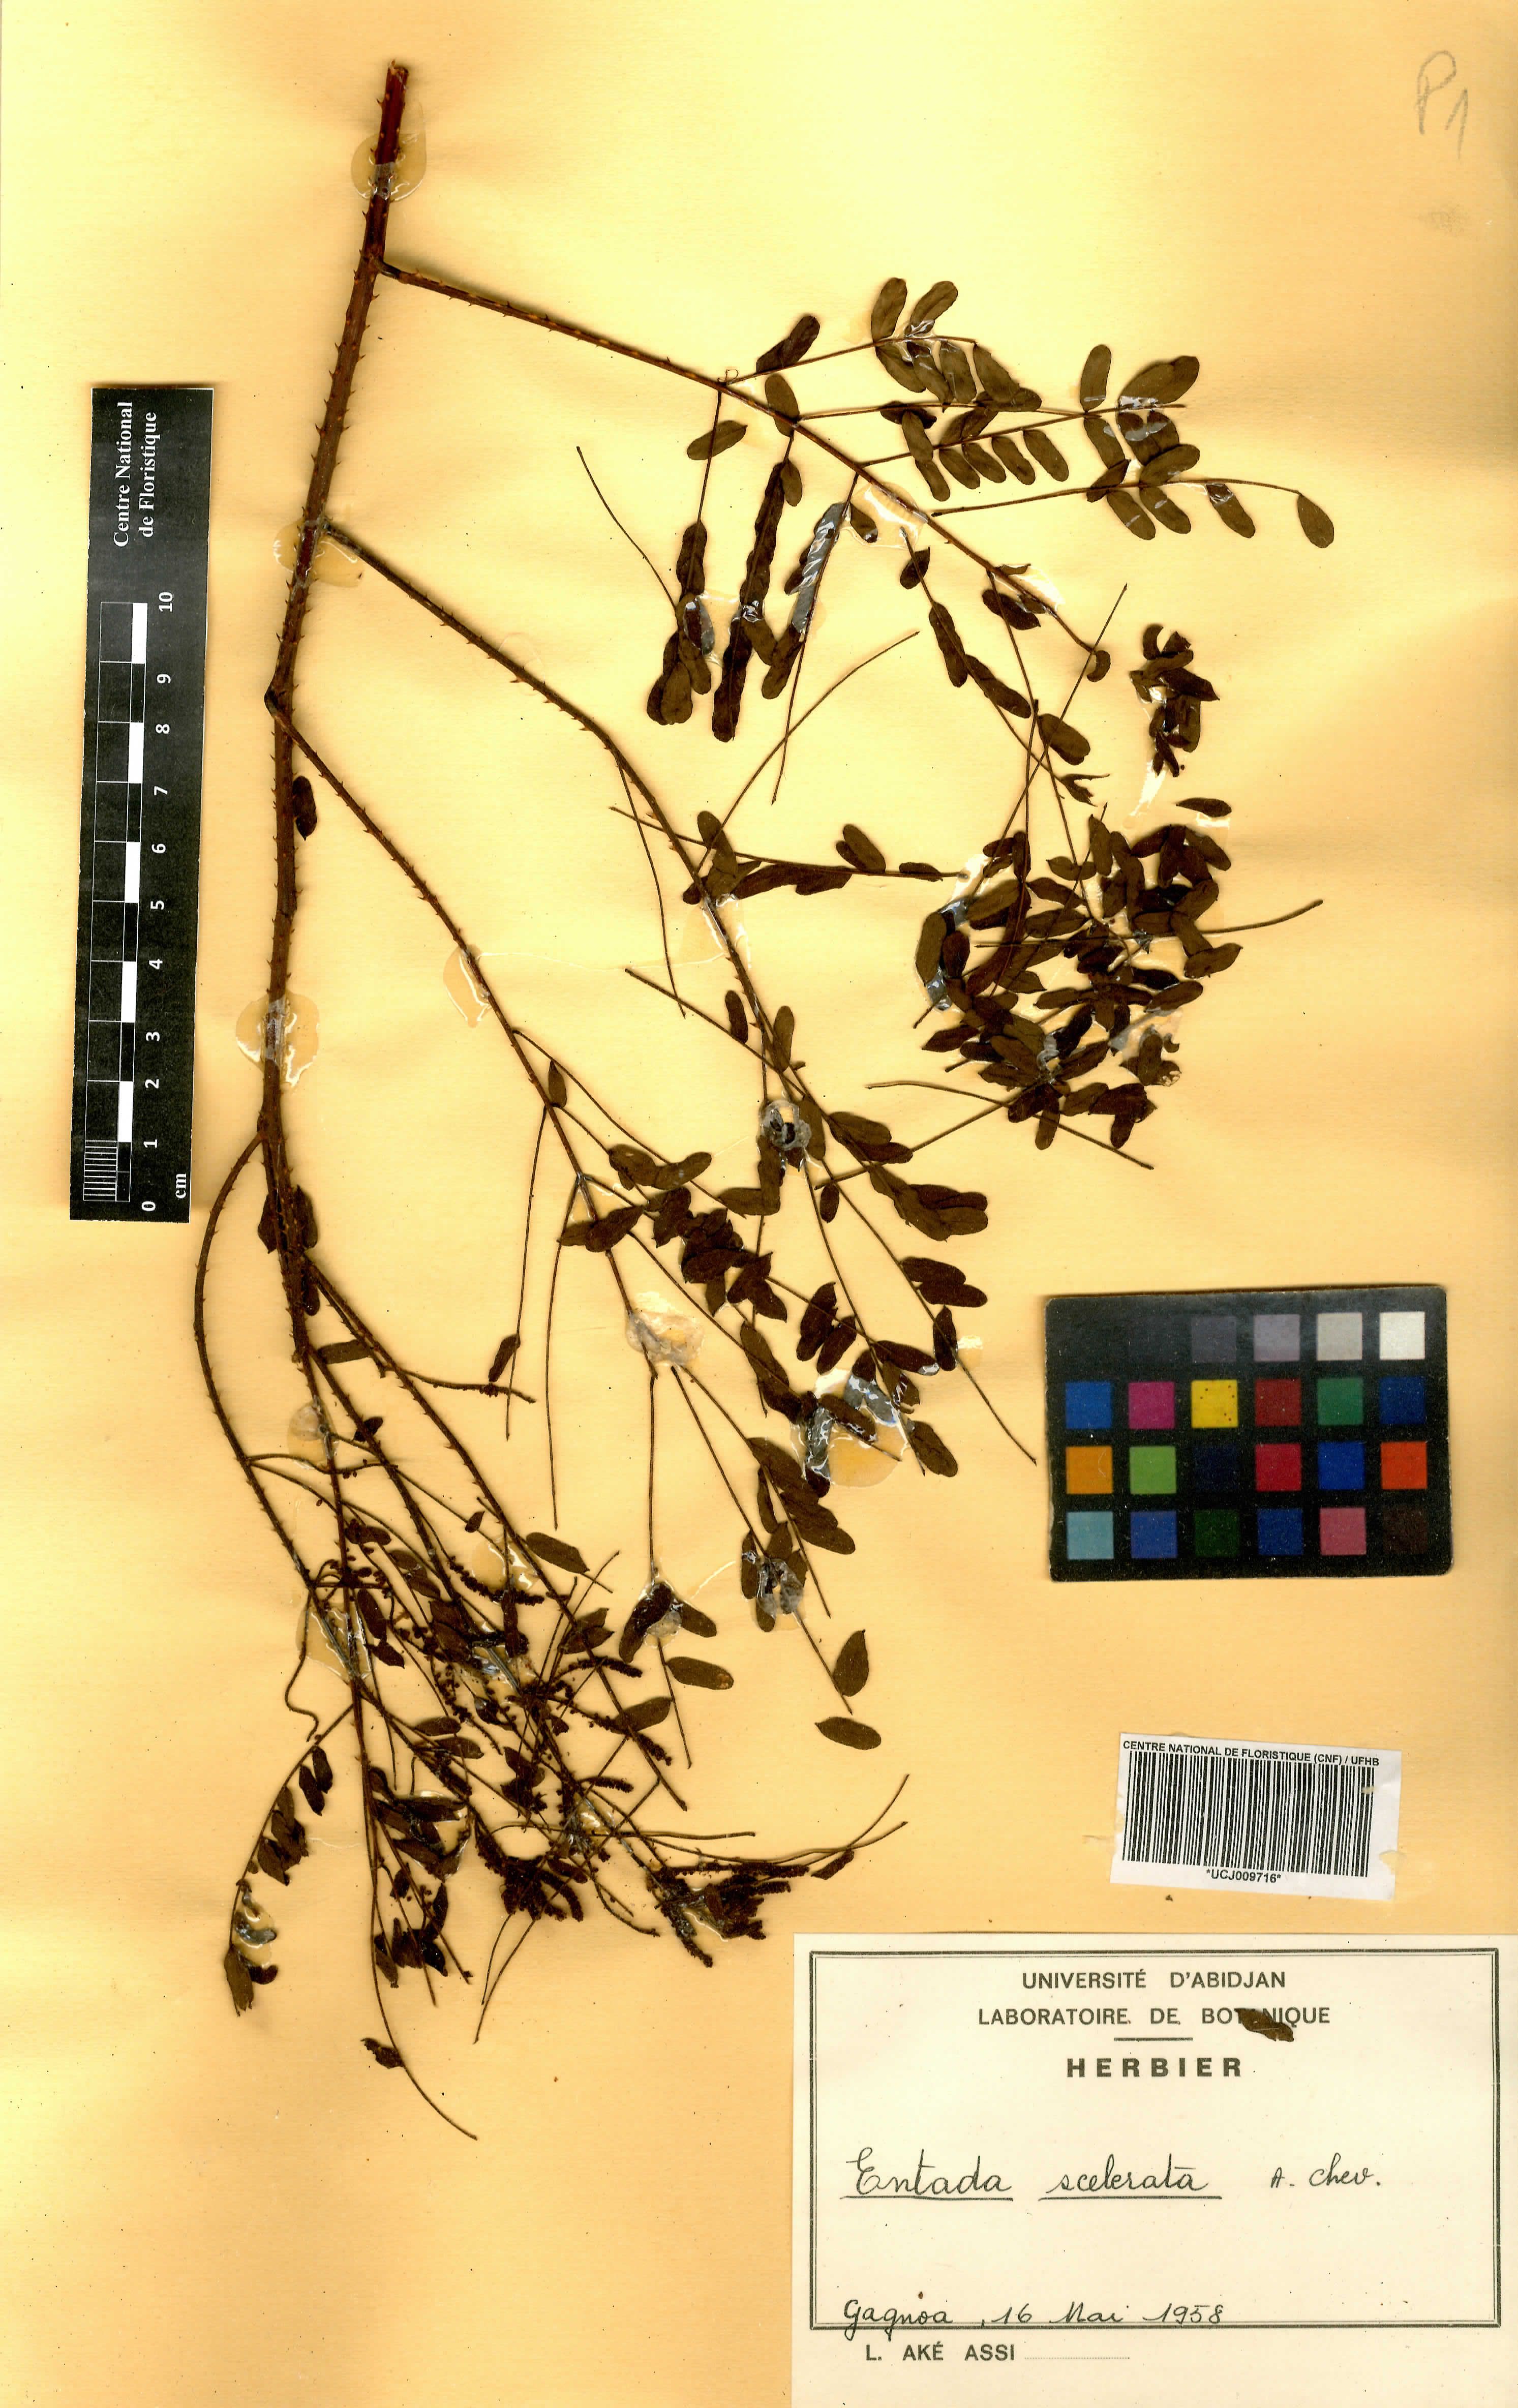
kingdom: Plantae
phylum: Tracheophyta
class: Magnoliopsida
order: Fabales
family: Fabaceae
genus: Adenopodia
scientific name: Adenopodia scelerata
